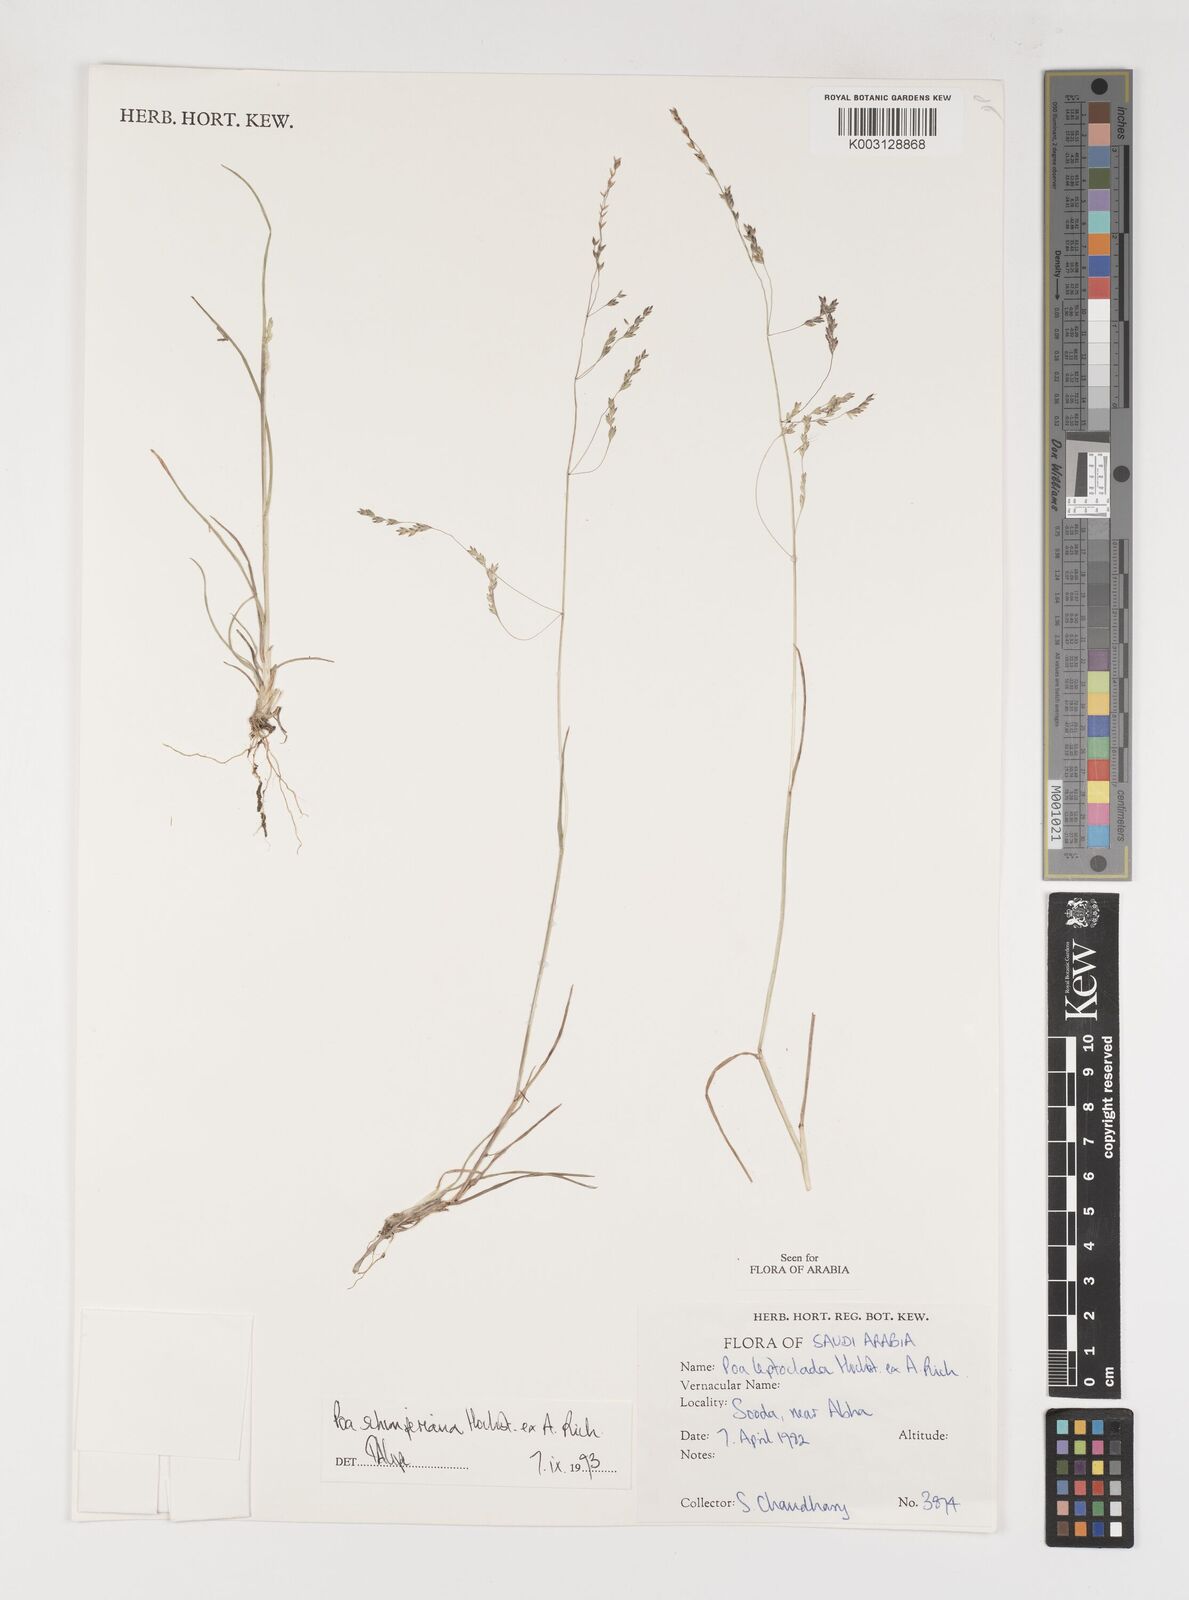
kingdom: Plantae
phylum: Tracheophyta
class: Liliopsida
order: Poales
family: Poaceae
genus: Poa
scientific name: Poa schimperiana
